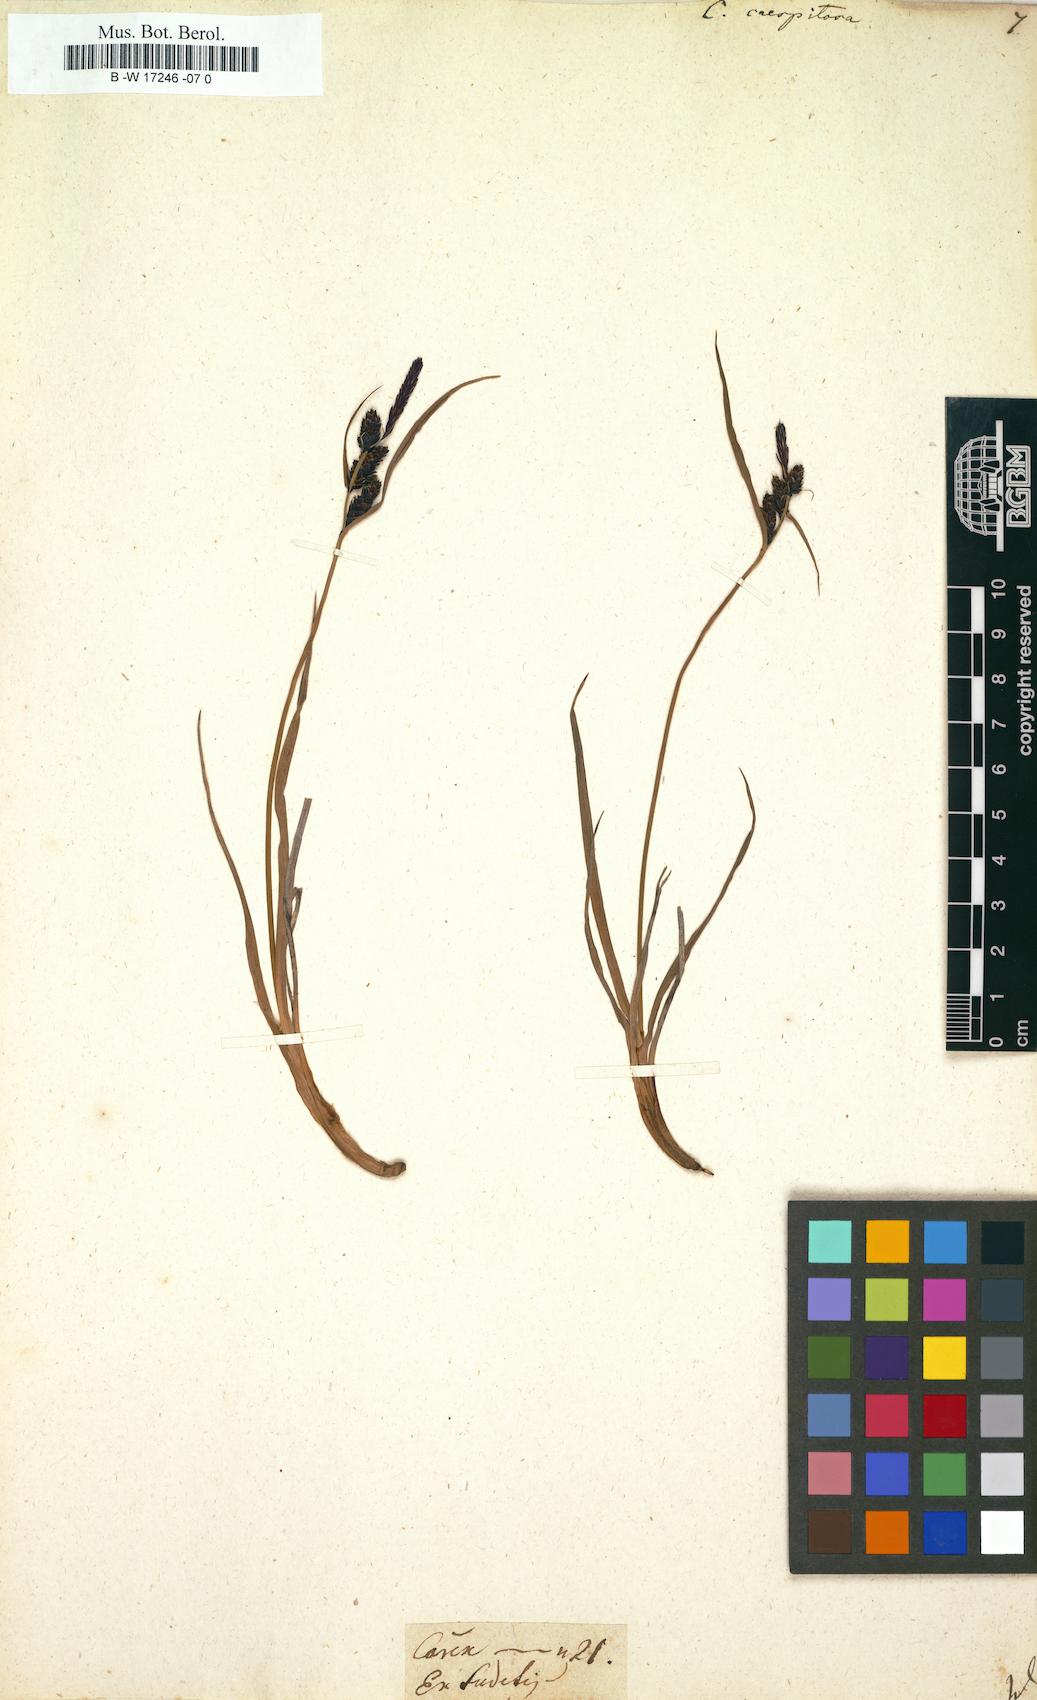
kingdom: Plantae
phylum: Tracheophyta
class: Liliopsida
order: Poales
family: Cyperaceae
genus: Carex
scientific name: Carex cespitosa
